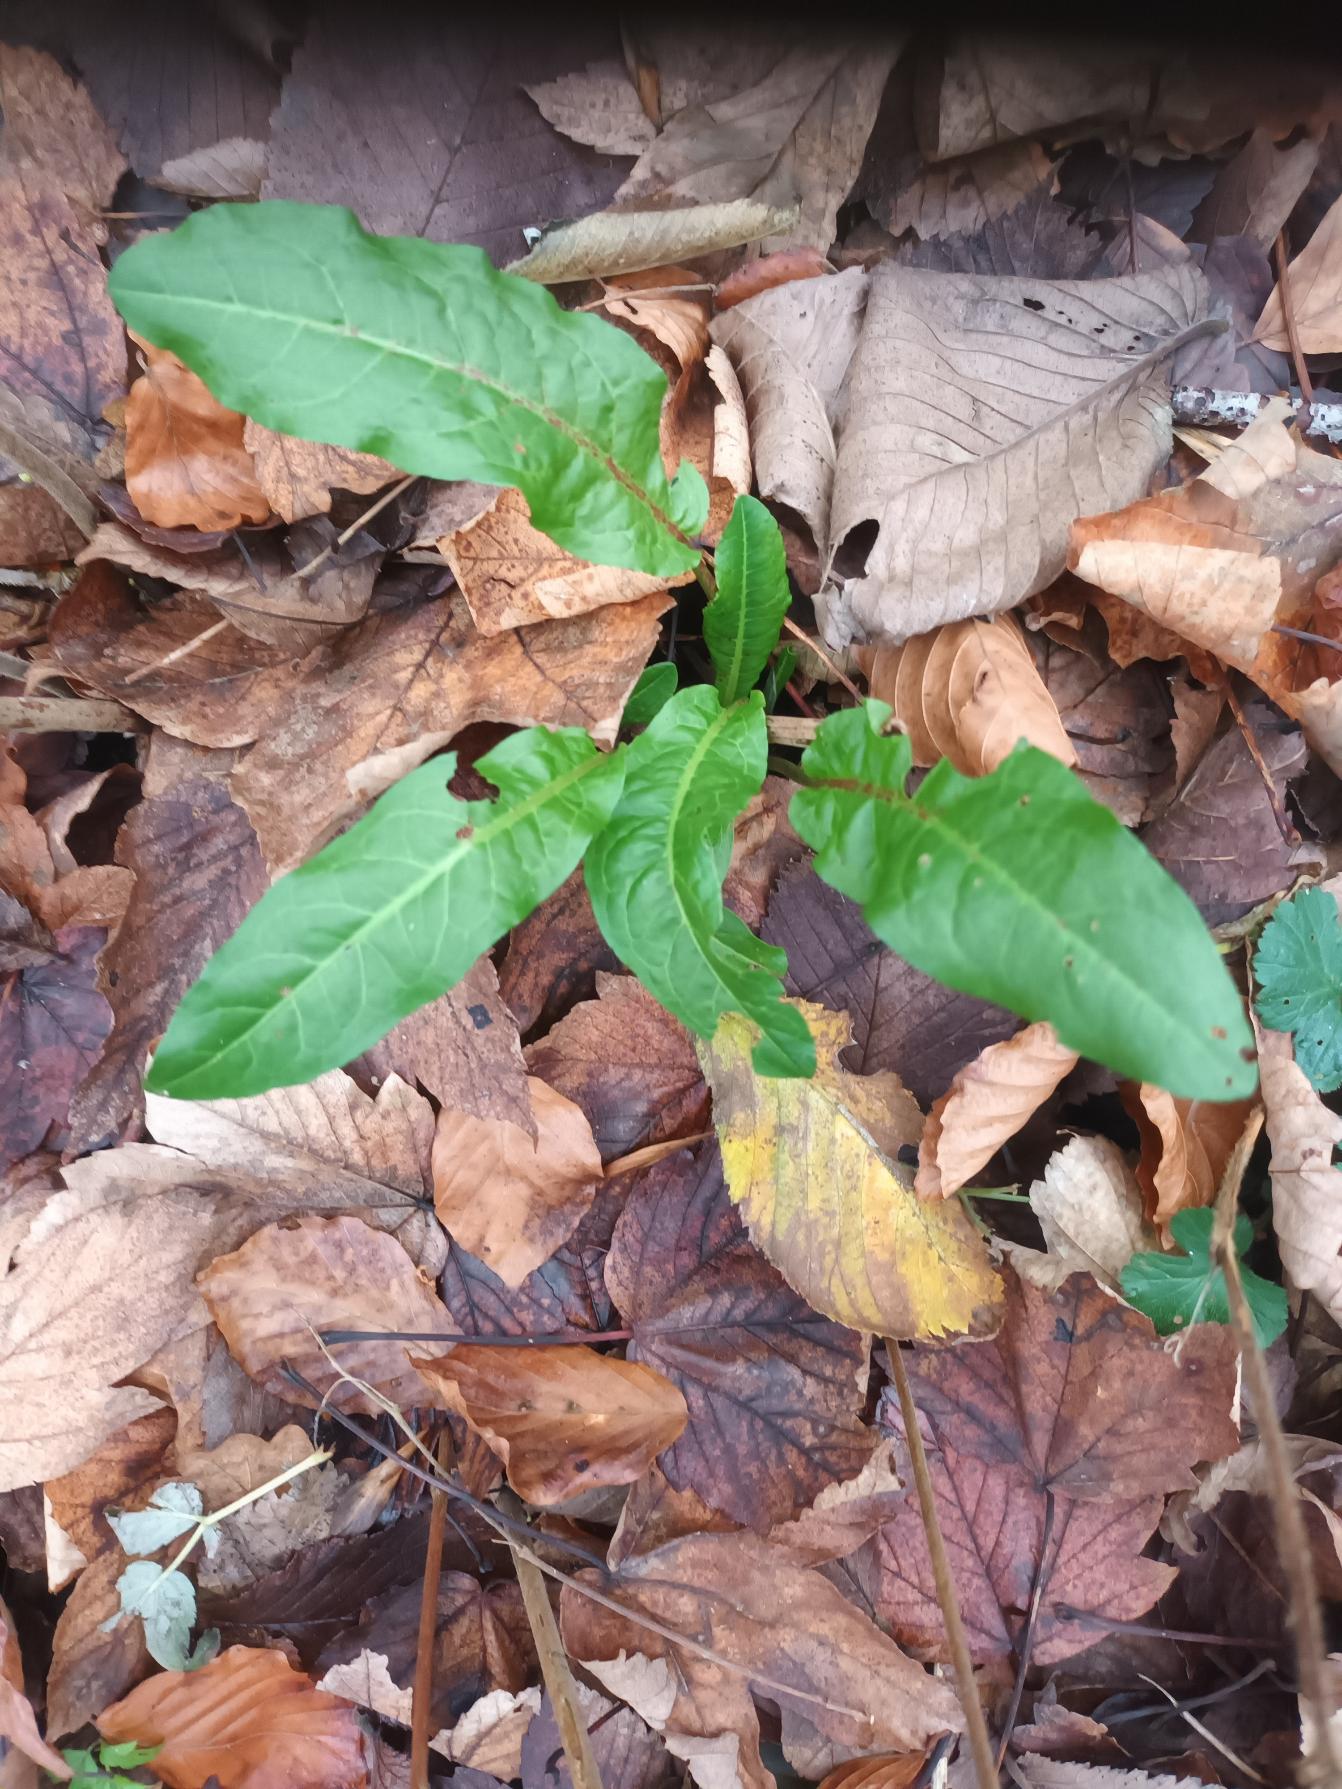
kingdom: Plantae
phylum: Tracheophyta
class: Magnoliopsida
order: Caryophyllales
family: Polygonaceae
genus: Rumex
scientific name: Rumex sanguineus
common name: Skov-skræppe
